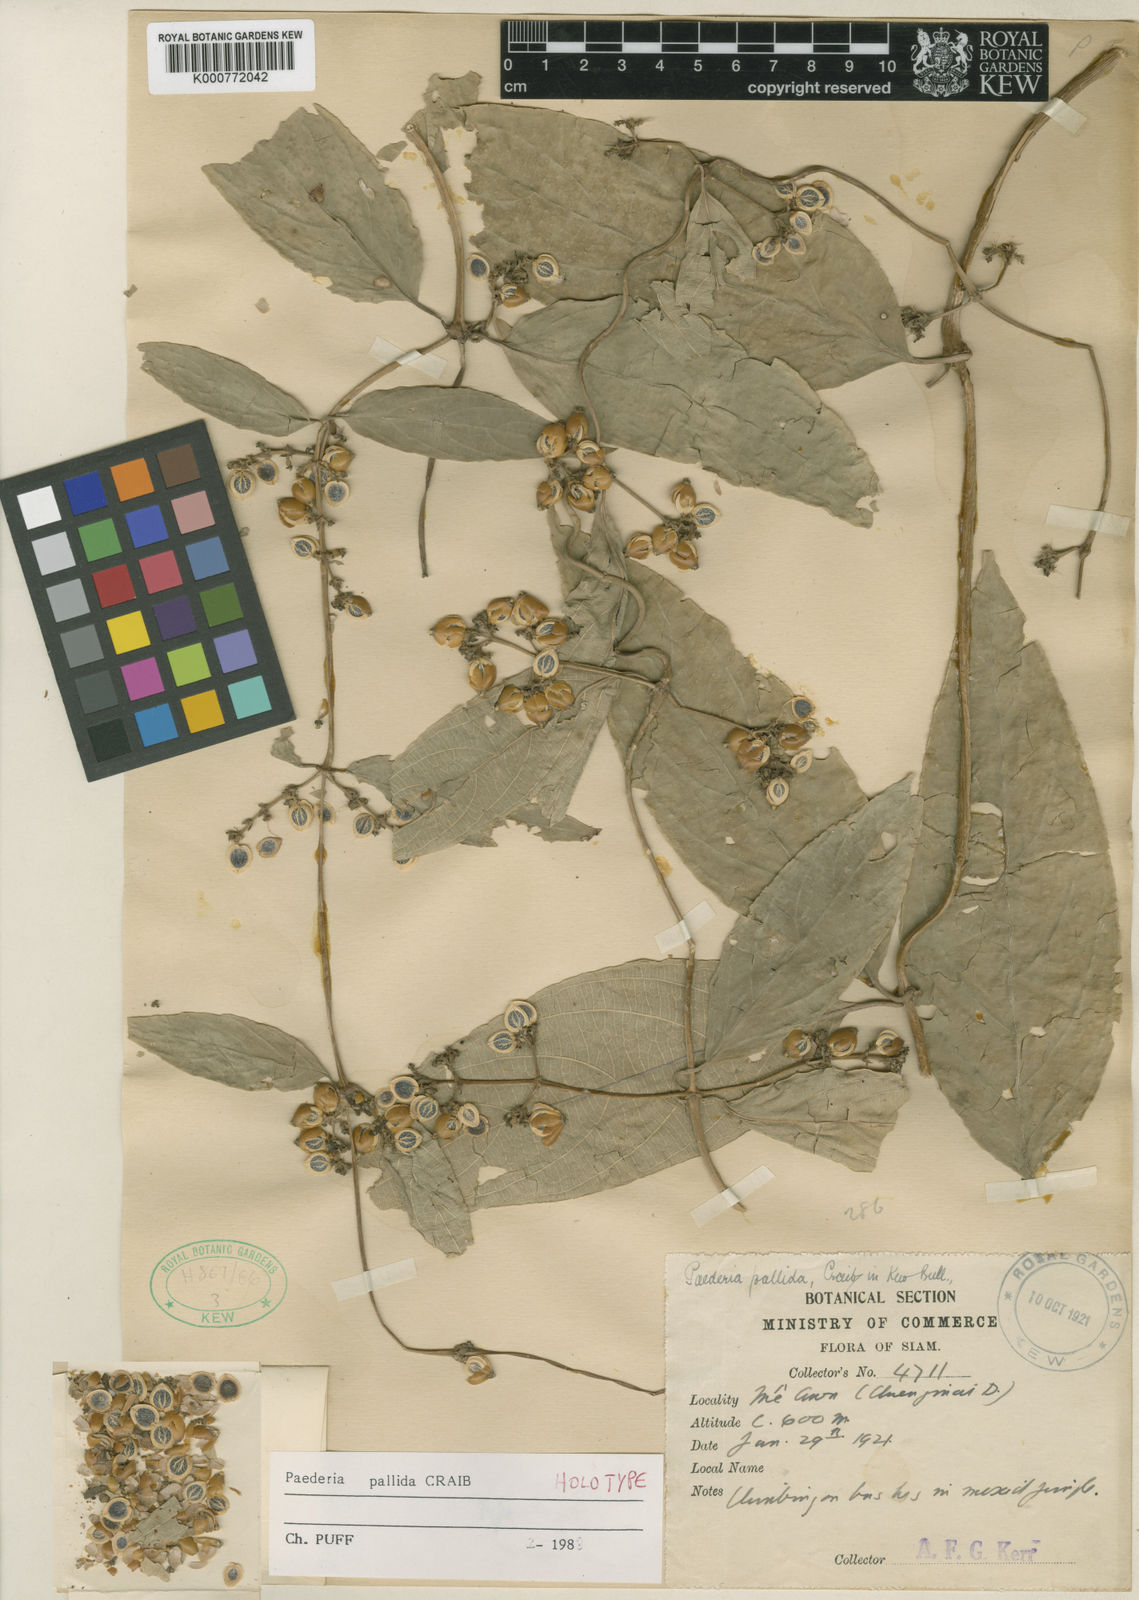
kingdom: Plantae
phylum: Tracheophyta
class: Magnoliopsida
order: Gentianales
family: Rubiaceae
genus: Paederia
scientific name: Paederia pallida
